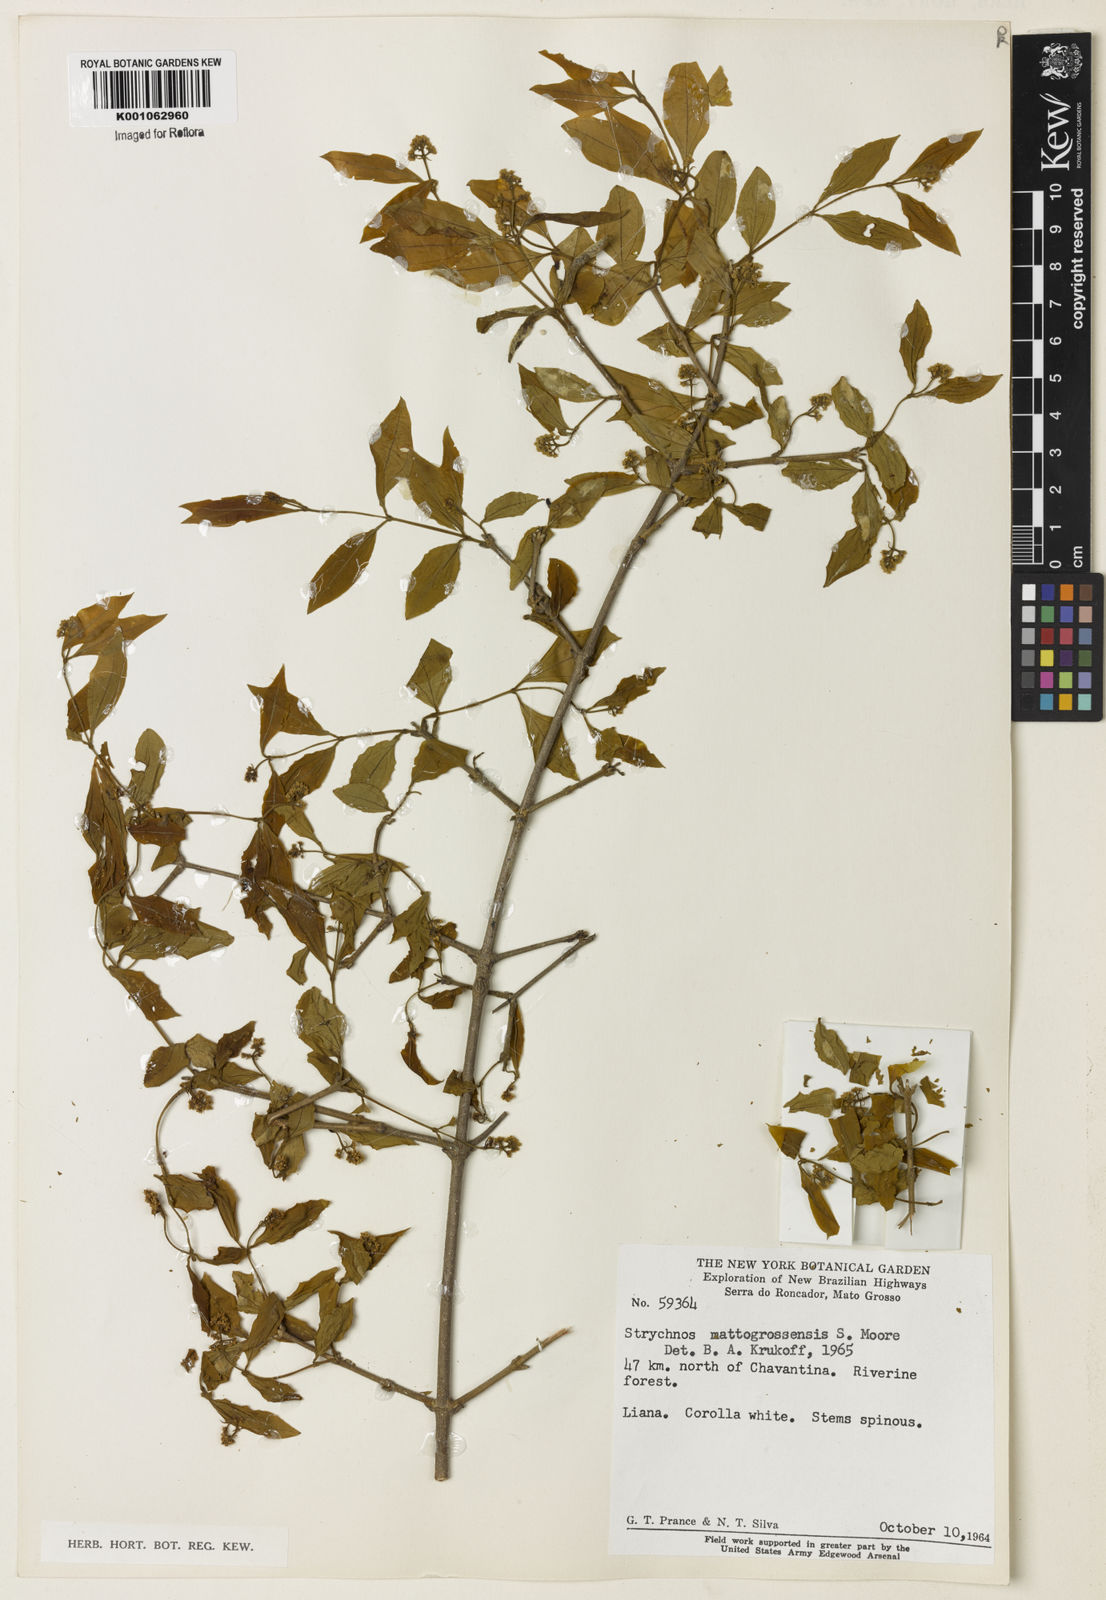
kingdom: Plantae
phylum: Tracheophyta
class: Magnoliopsida
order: Gentianales
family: Loganiaceae
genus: Strychnos
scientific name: Strychnos mattogrossensis
